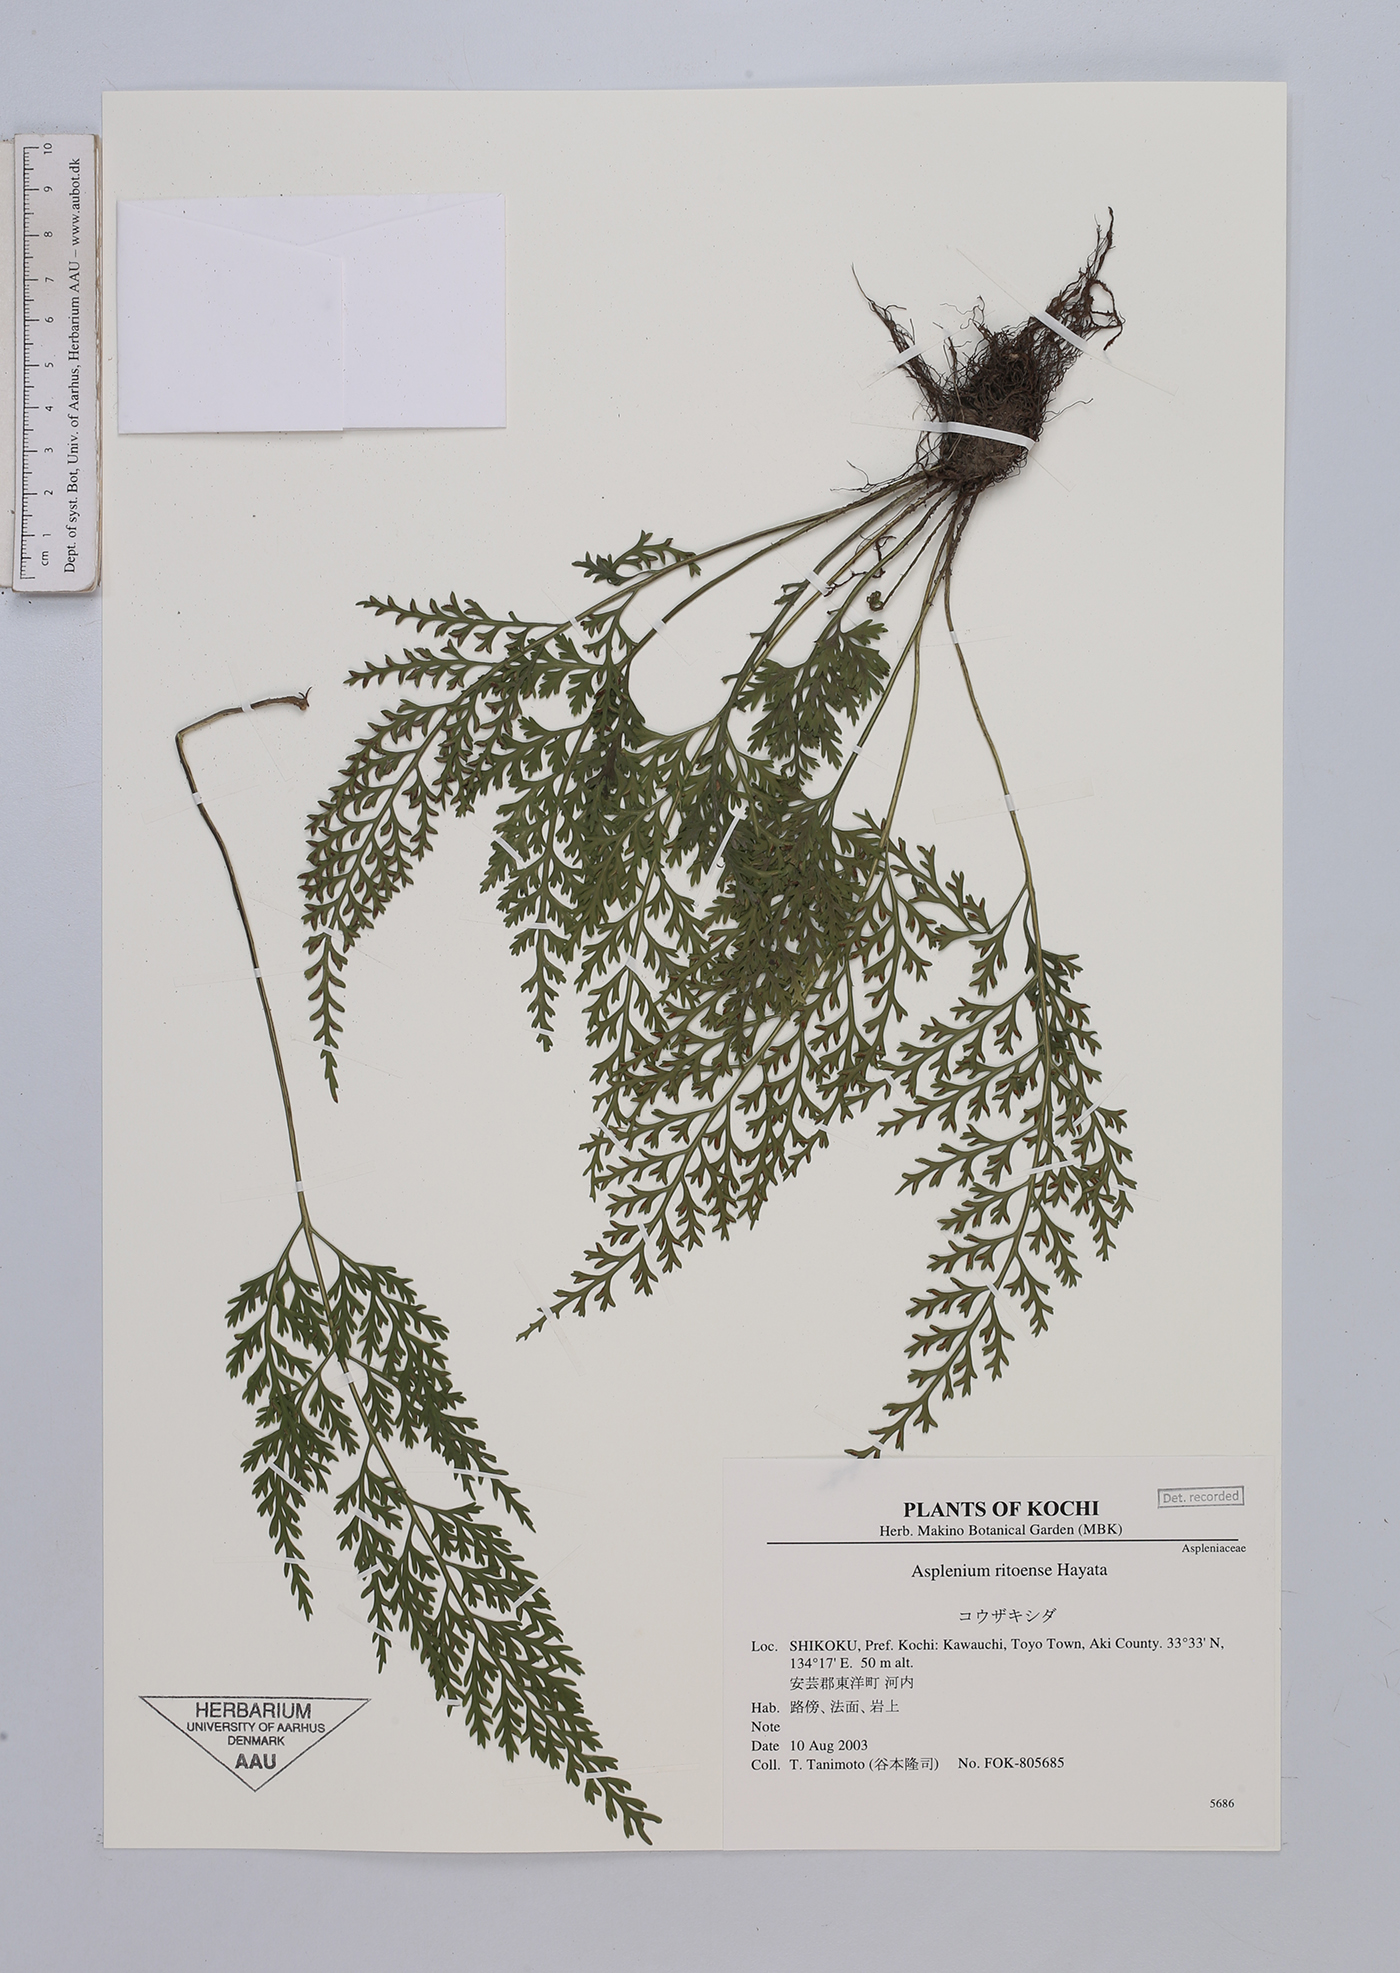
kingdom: Plantae
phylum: Tracheophyta
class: Polypodiopsida
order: Polypodiales
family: Aspleniaceae
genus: Asplenium
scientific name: Asplenium ritoense
